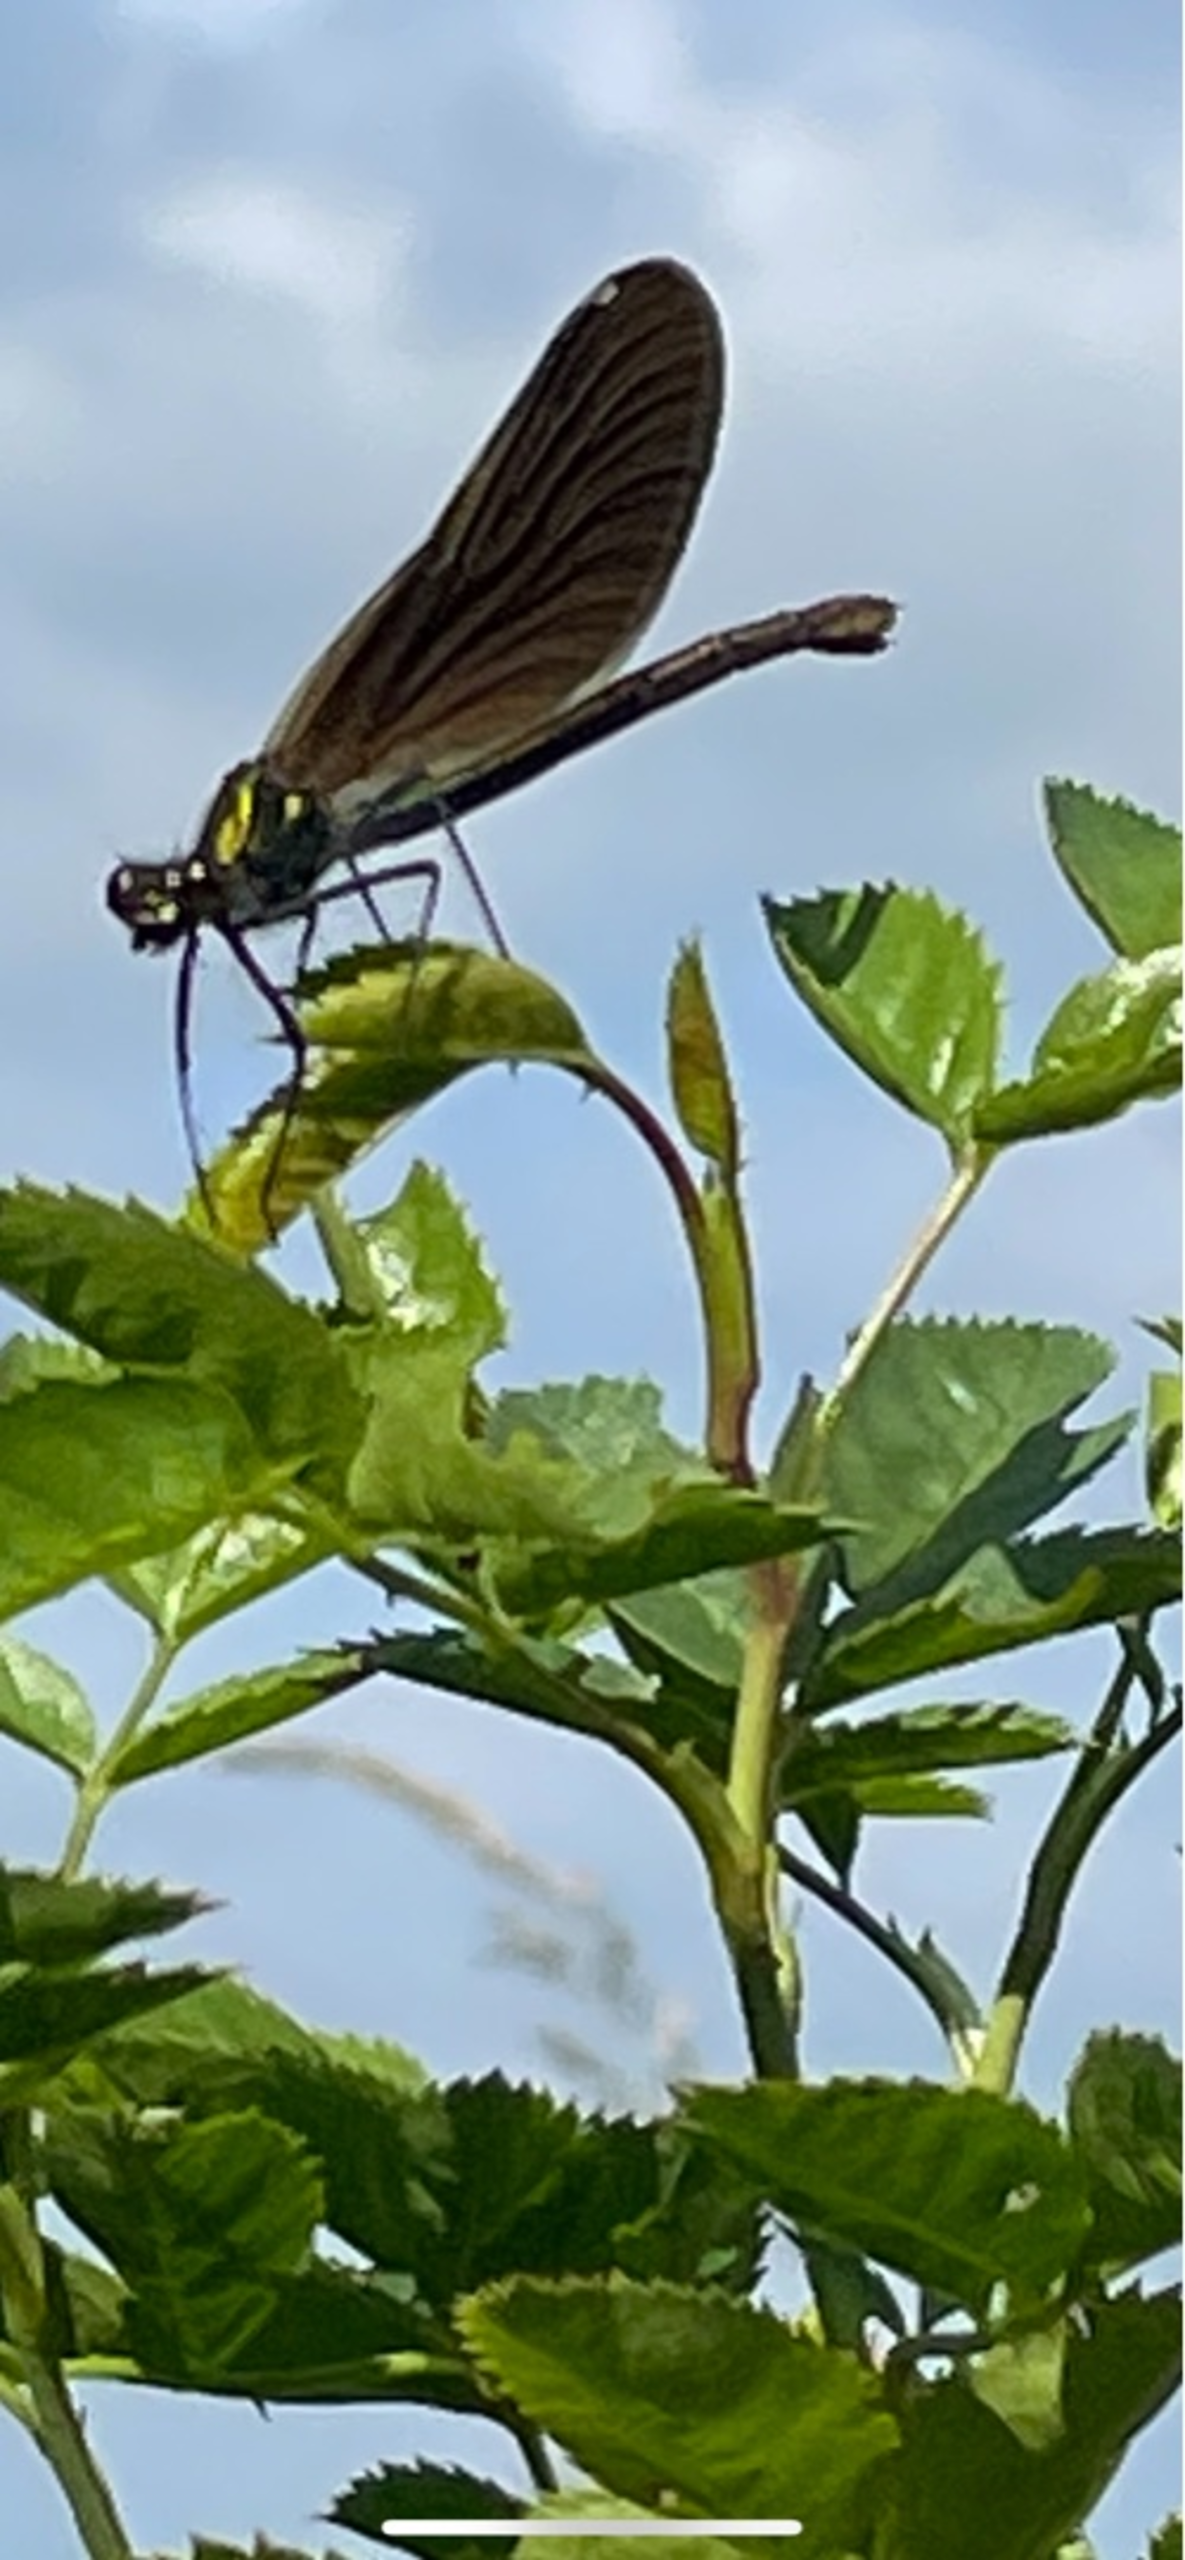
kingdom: Animalia
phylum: Arthropoda
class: Insecta
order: Odonata
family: Calopterygidae
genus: Calopteryx
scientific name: Calopteryx virgo
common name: Blåvinget pragtvandnymfe
